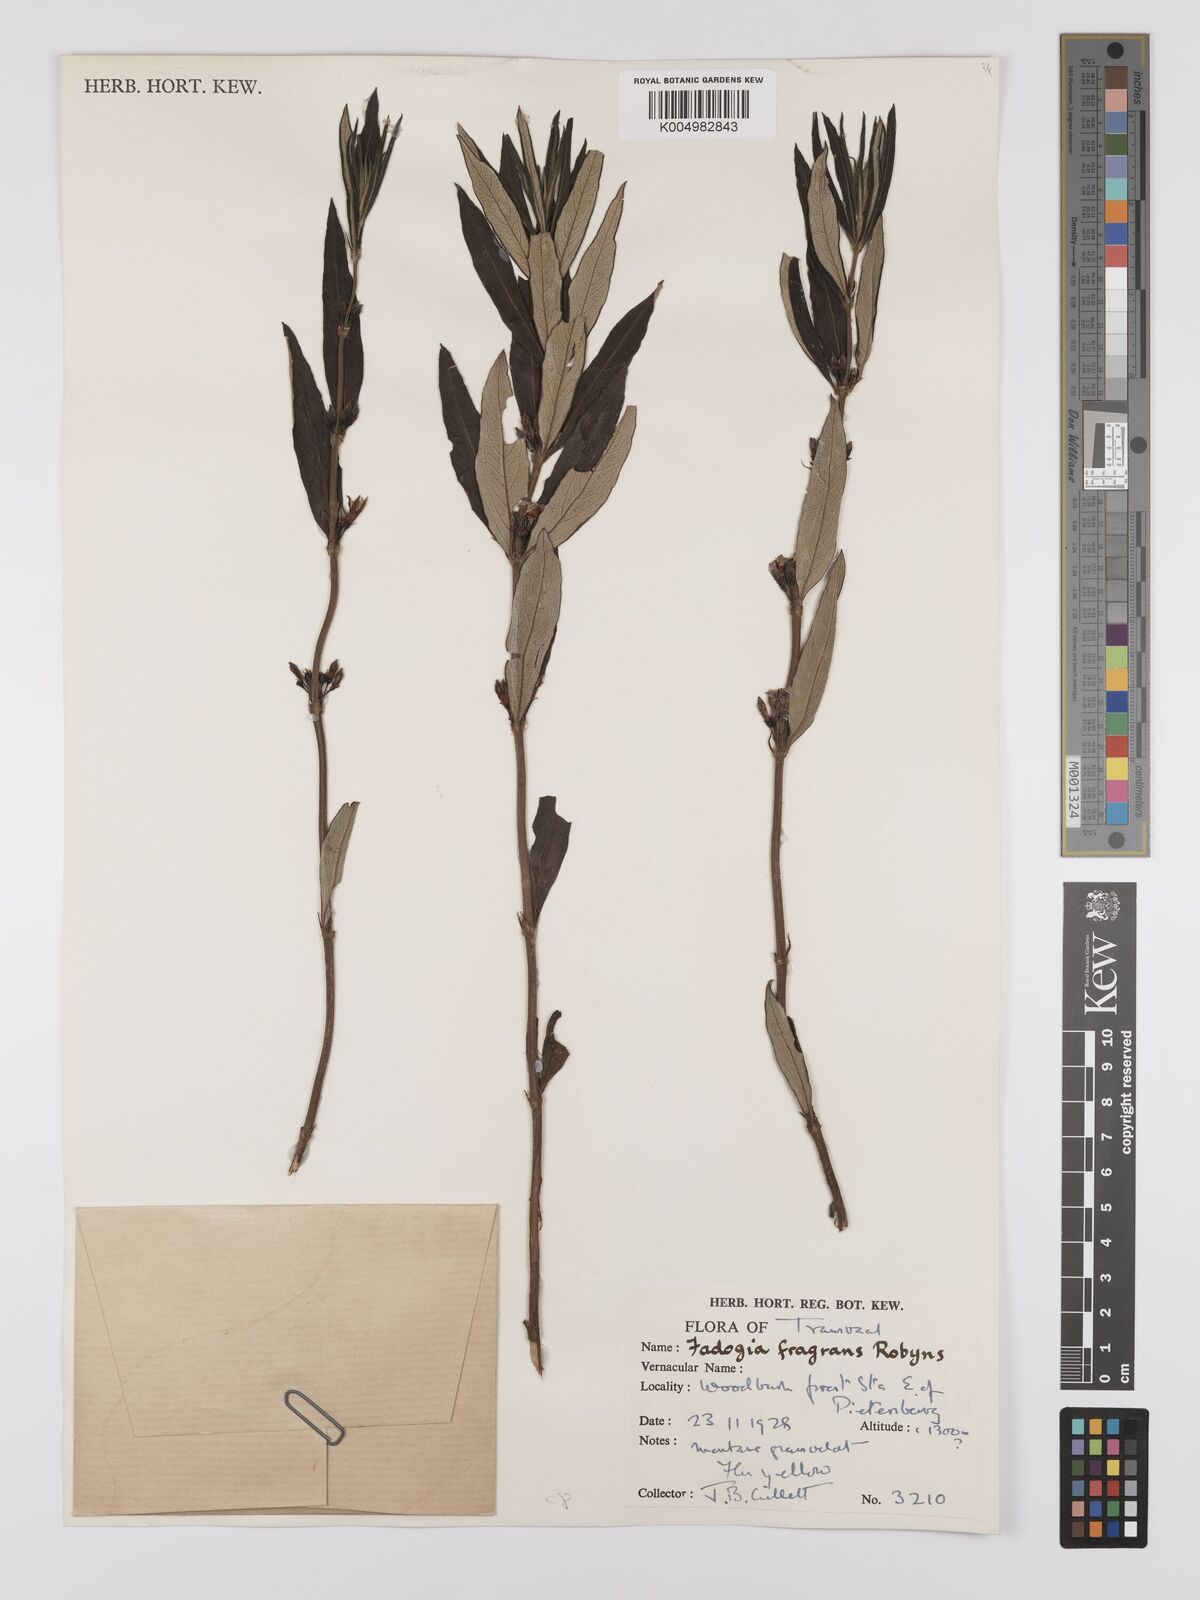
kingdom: Plantae
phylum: Tracheophyta
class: Magnoliopsida
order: Gentianales
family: Rubiaceae
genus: Fadogia
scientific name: Fadogia triphylla
